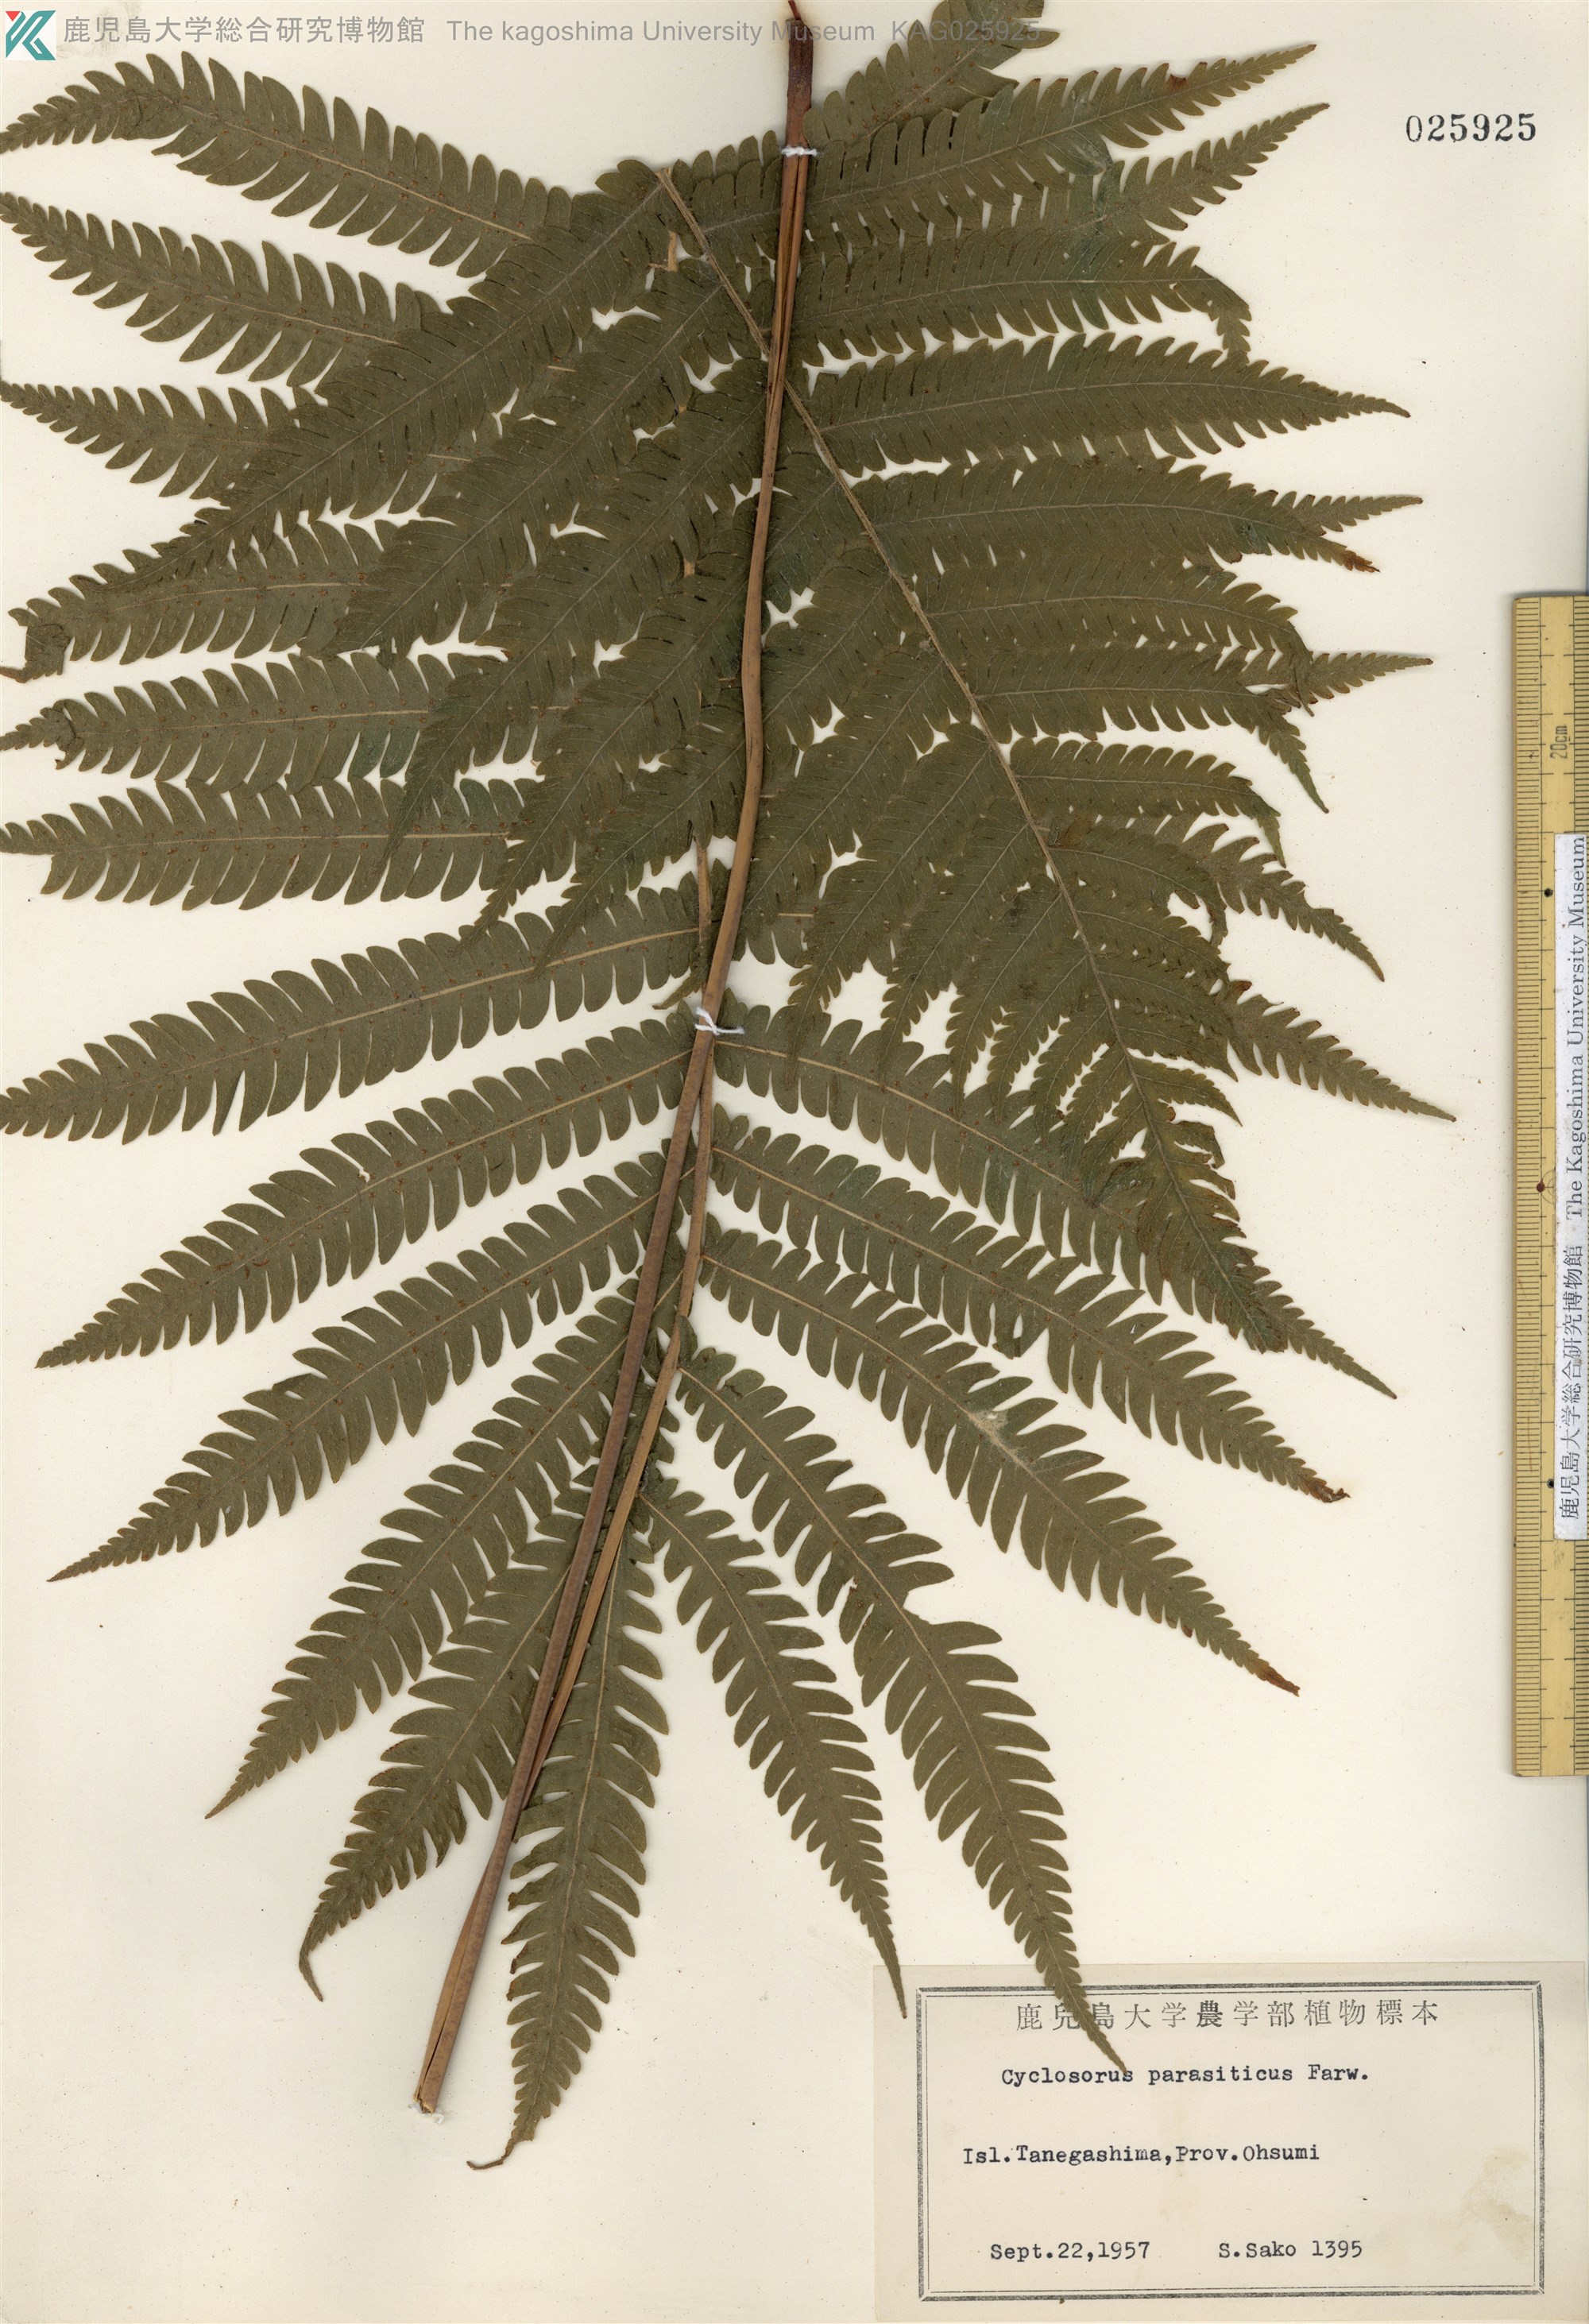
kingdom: Plantae
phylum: Tracheophyta
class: Polypodiopsida
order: Polypodiales
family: Thelypteridaceae
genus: Christella
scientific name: Christella parasitica
